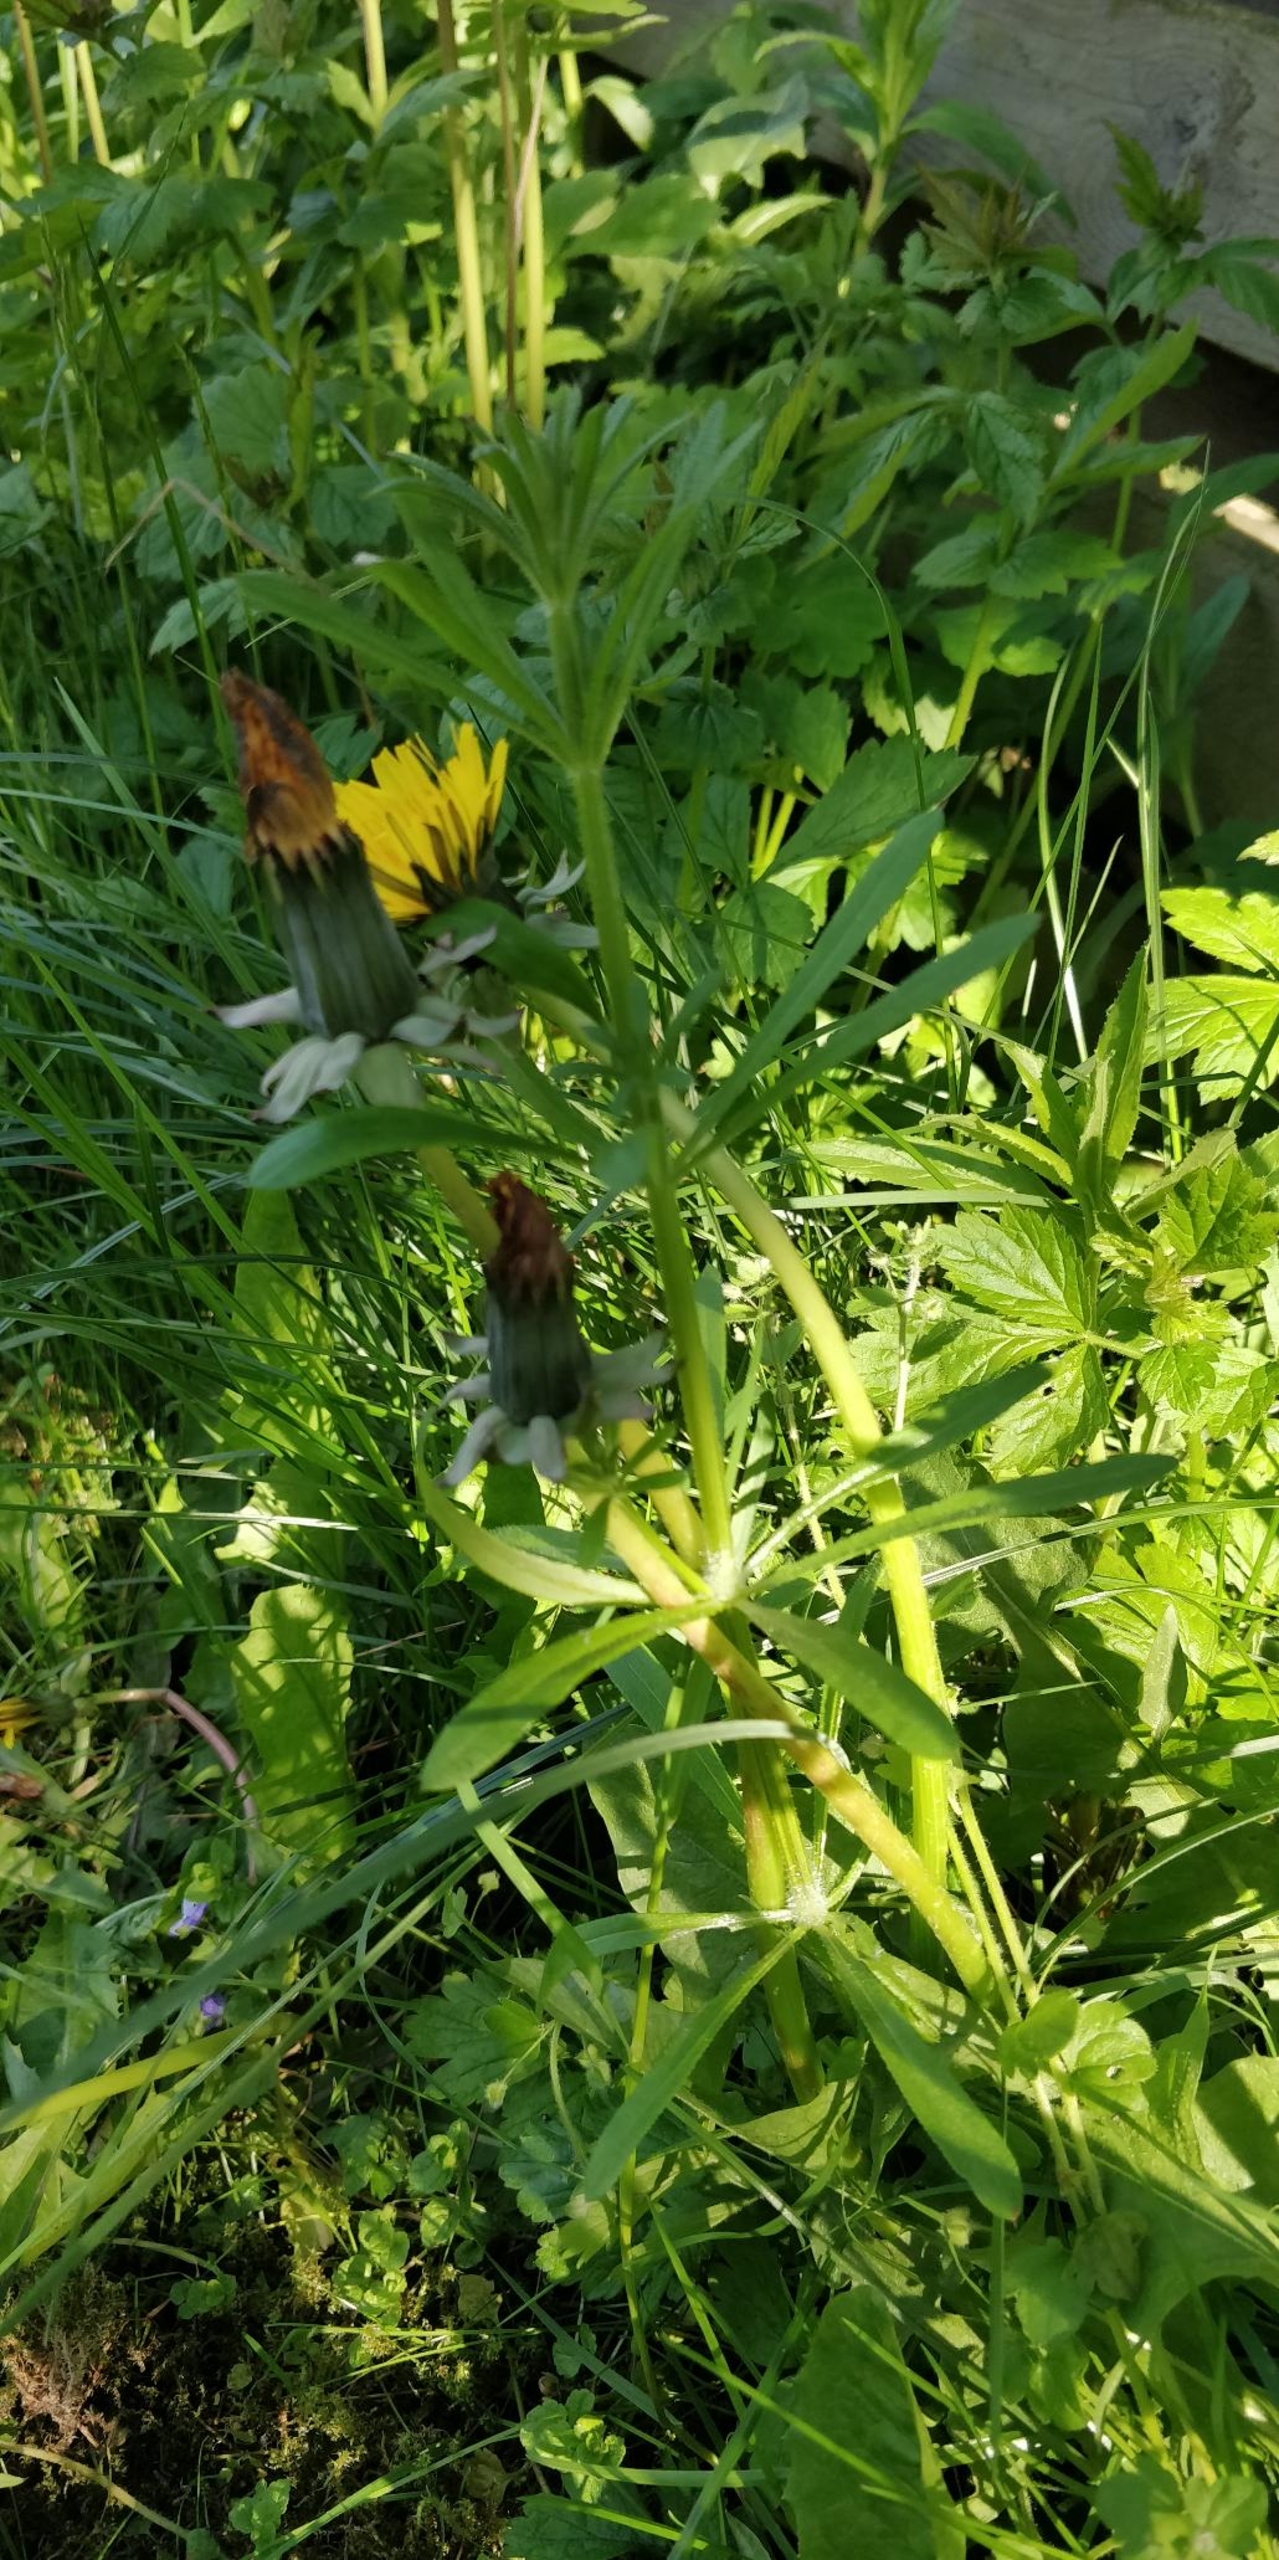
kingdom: Plantae
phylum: Tracheophyta
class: Magnoliopsida
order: Gentianales
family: Rubiaceae
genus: Galium
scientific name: Galium aparine
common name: Burre-snerre
